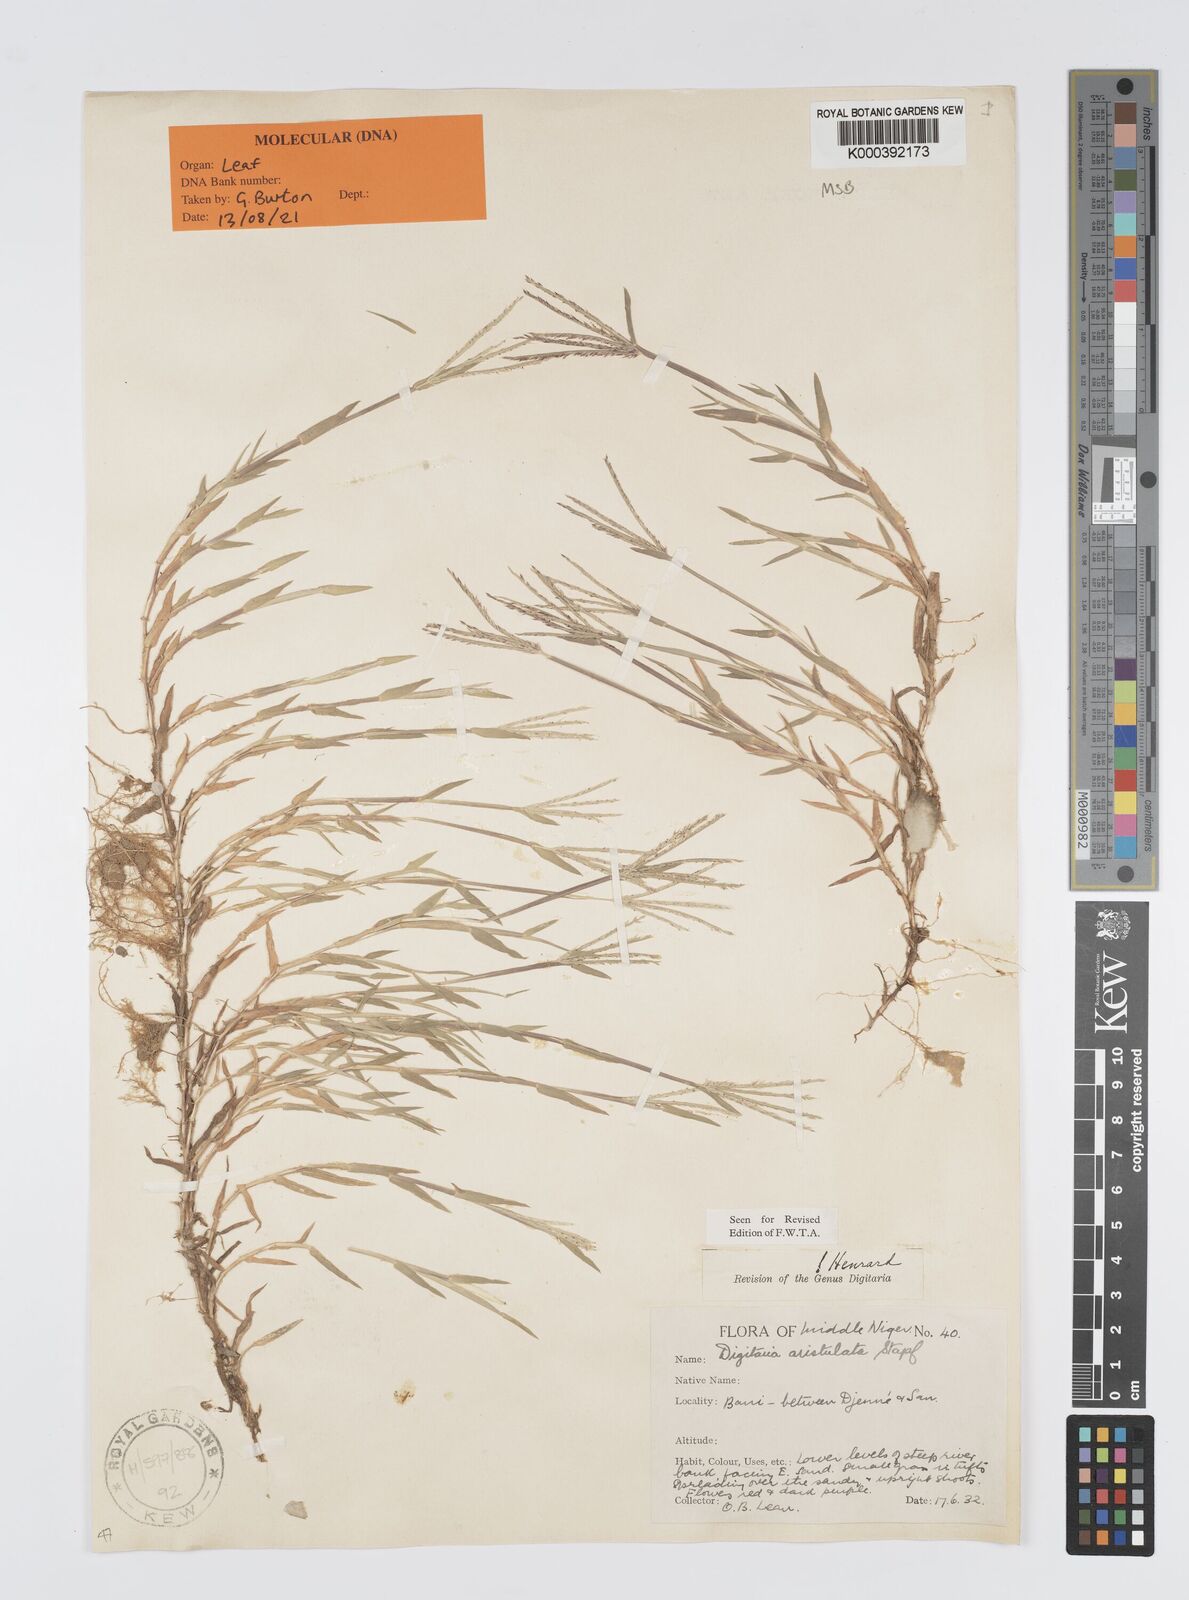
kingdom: Plantae
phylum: Tracheophyta
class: Liliopsida
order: Poales
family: Poaceae
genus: Digitaria
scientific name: Digitaria aristulata
